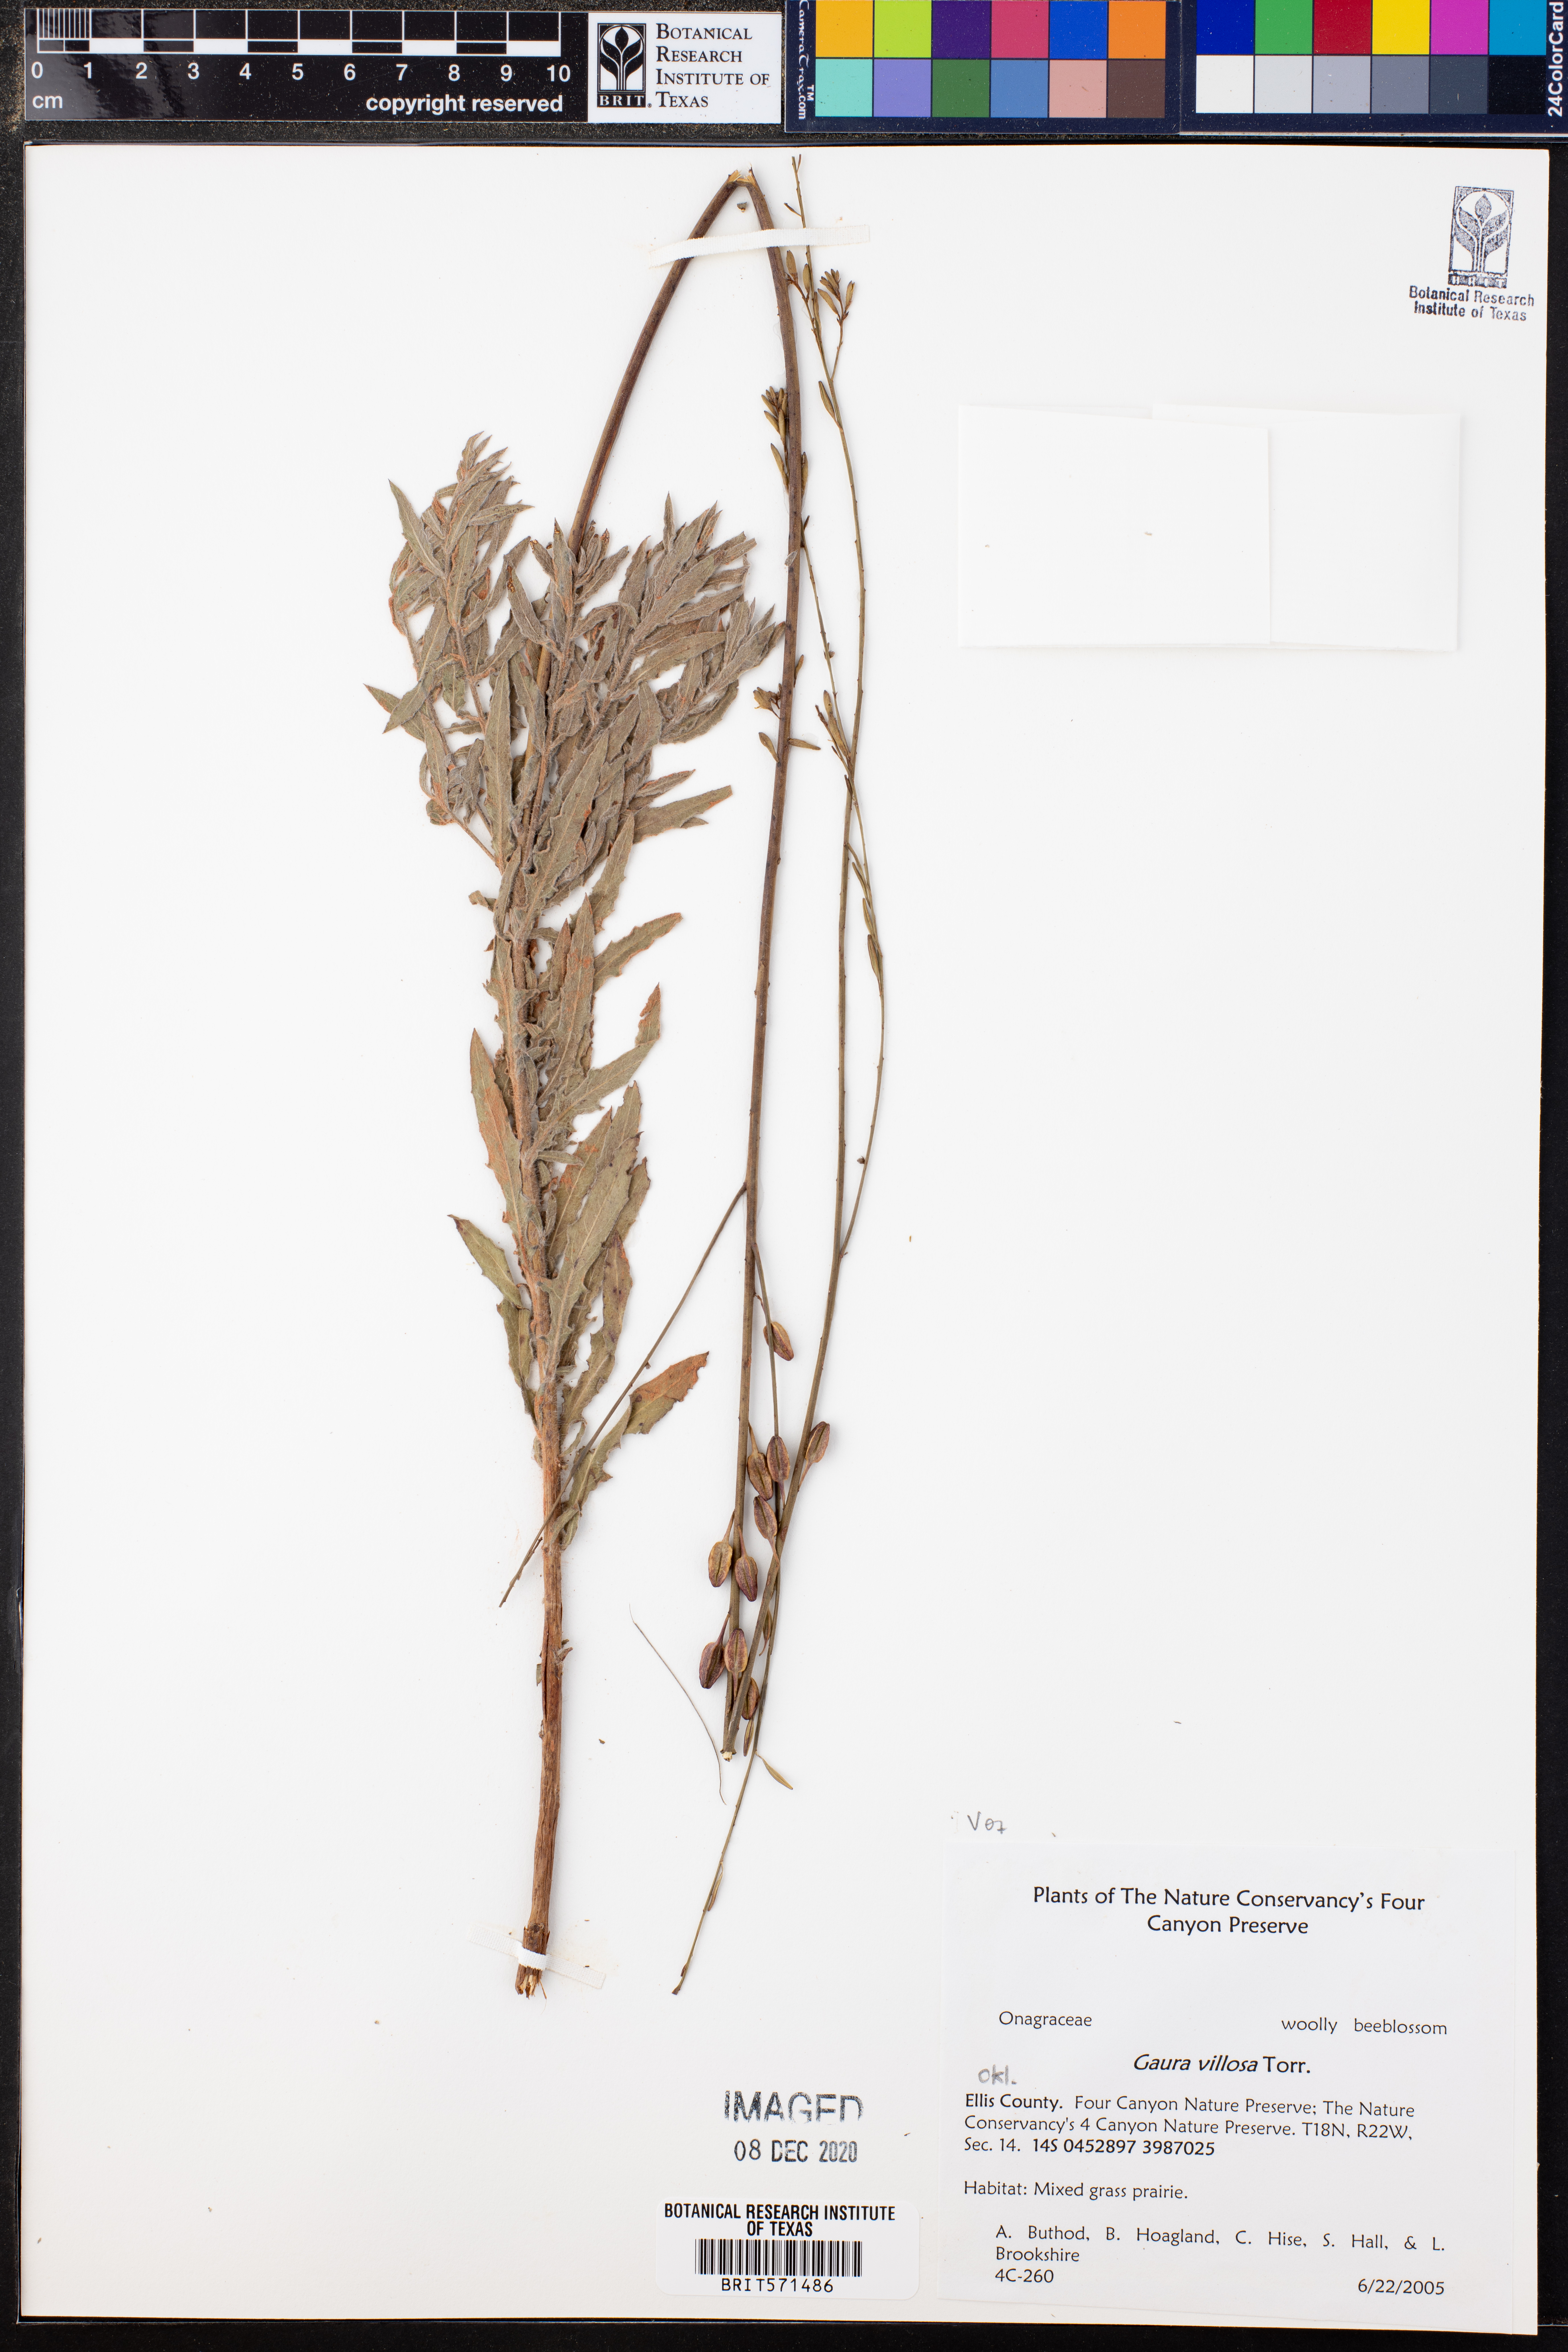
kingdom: Plantae
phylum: Tracheophyta
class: Magnoliopsida
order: Myrtales
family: Onagraceae
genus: Oenothera
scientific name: Oenothera cinerea
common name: Woolly beeblossom
